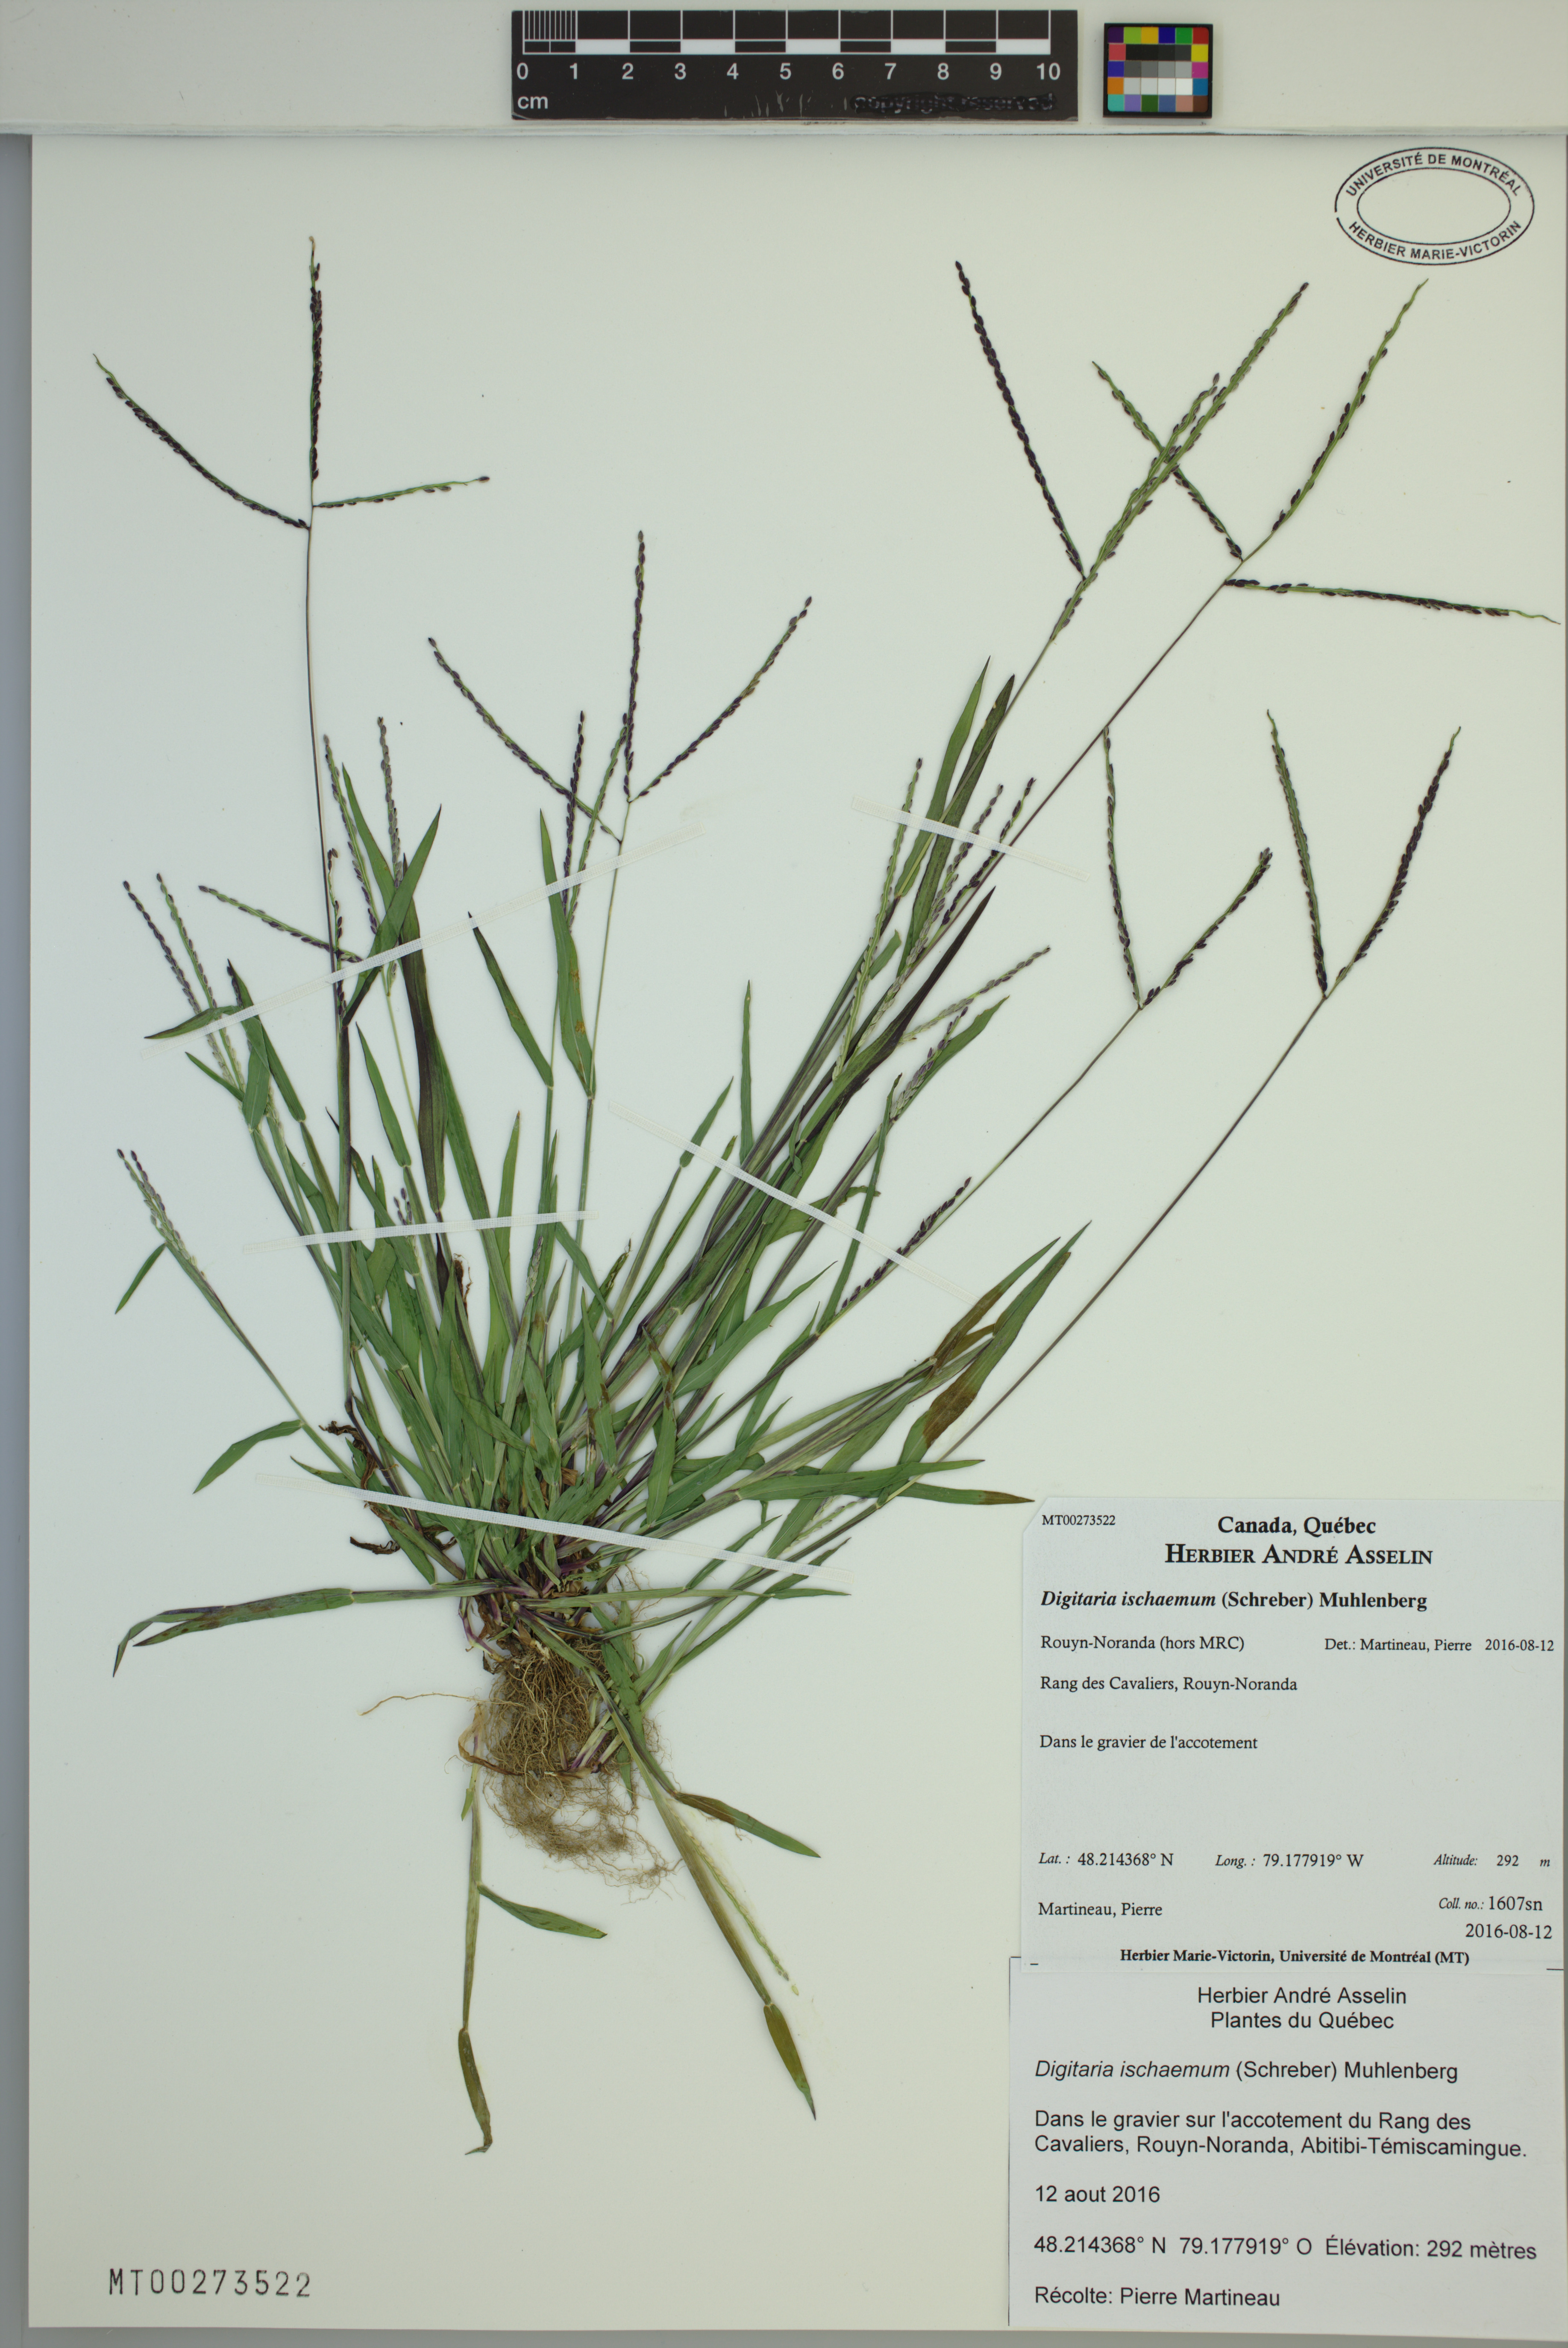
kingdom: Plantae
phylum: Tracheophyta
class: Liliopsida
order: Poales
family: Poaceae
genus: Digitaria
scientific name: Digitaria ischaemum
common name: Smooth crabgrass
